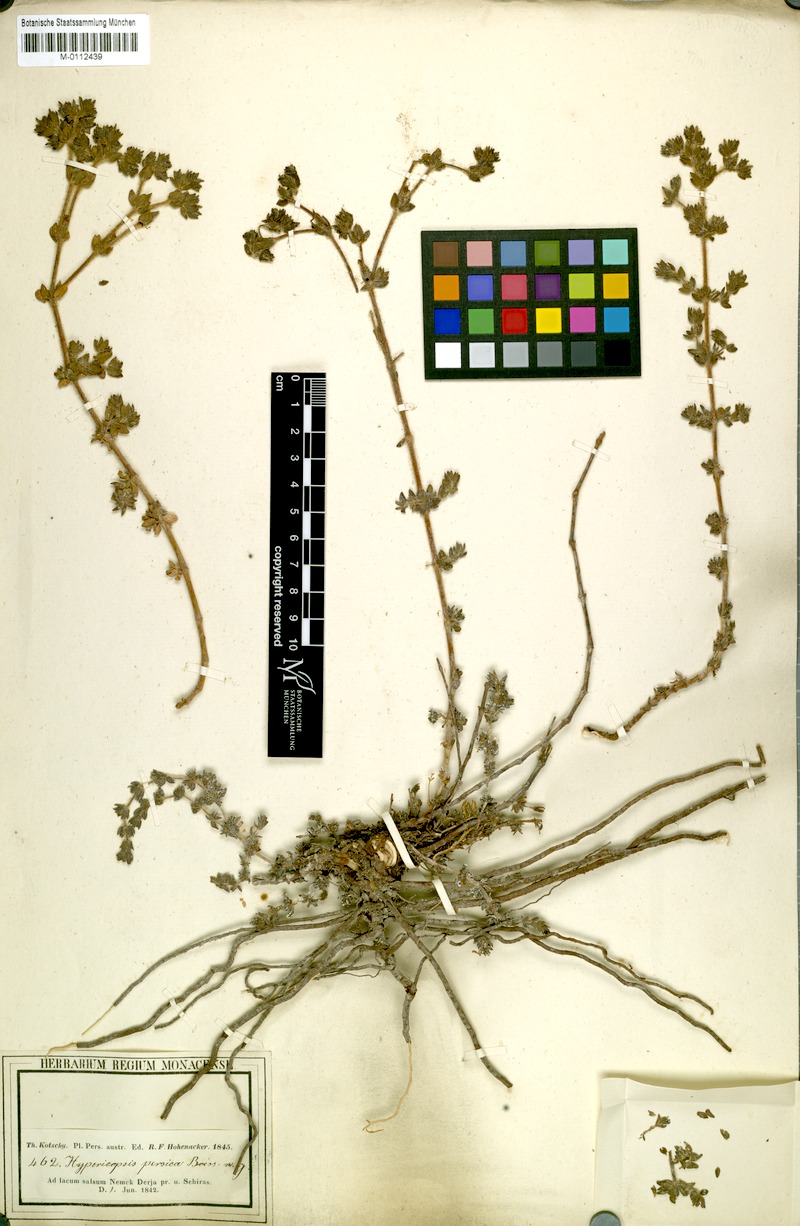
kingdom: Plantae
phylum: Tracheophyta
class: Magnoliopsida
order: Caryophyllales
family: Frankeniaceae
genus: Frankenia
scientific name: Frankenia persica
